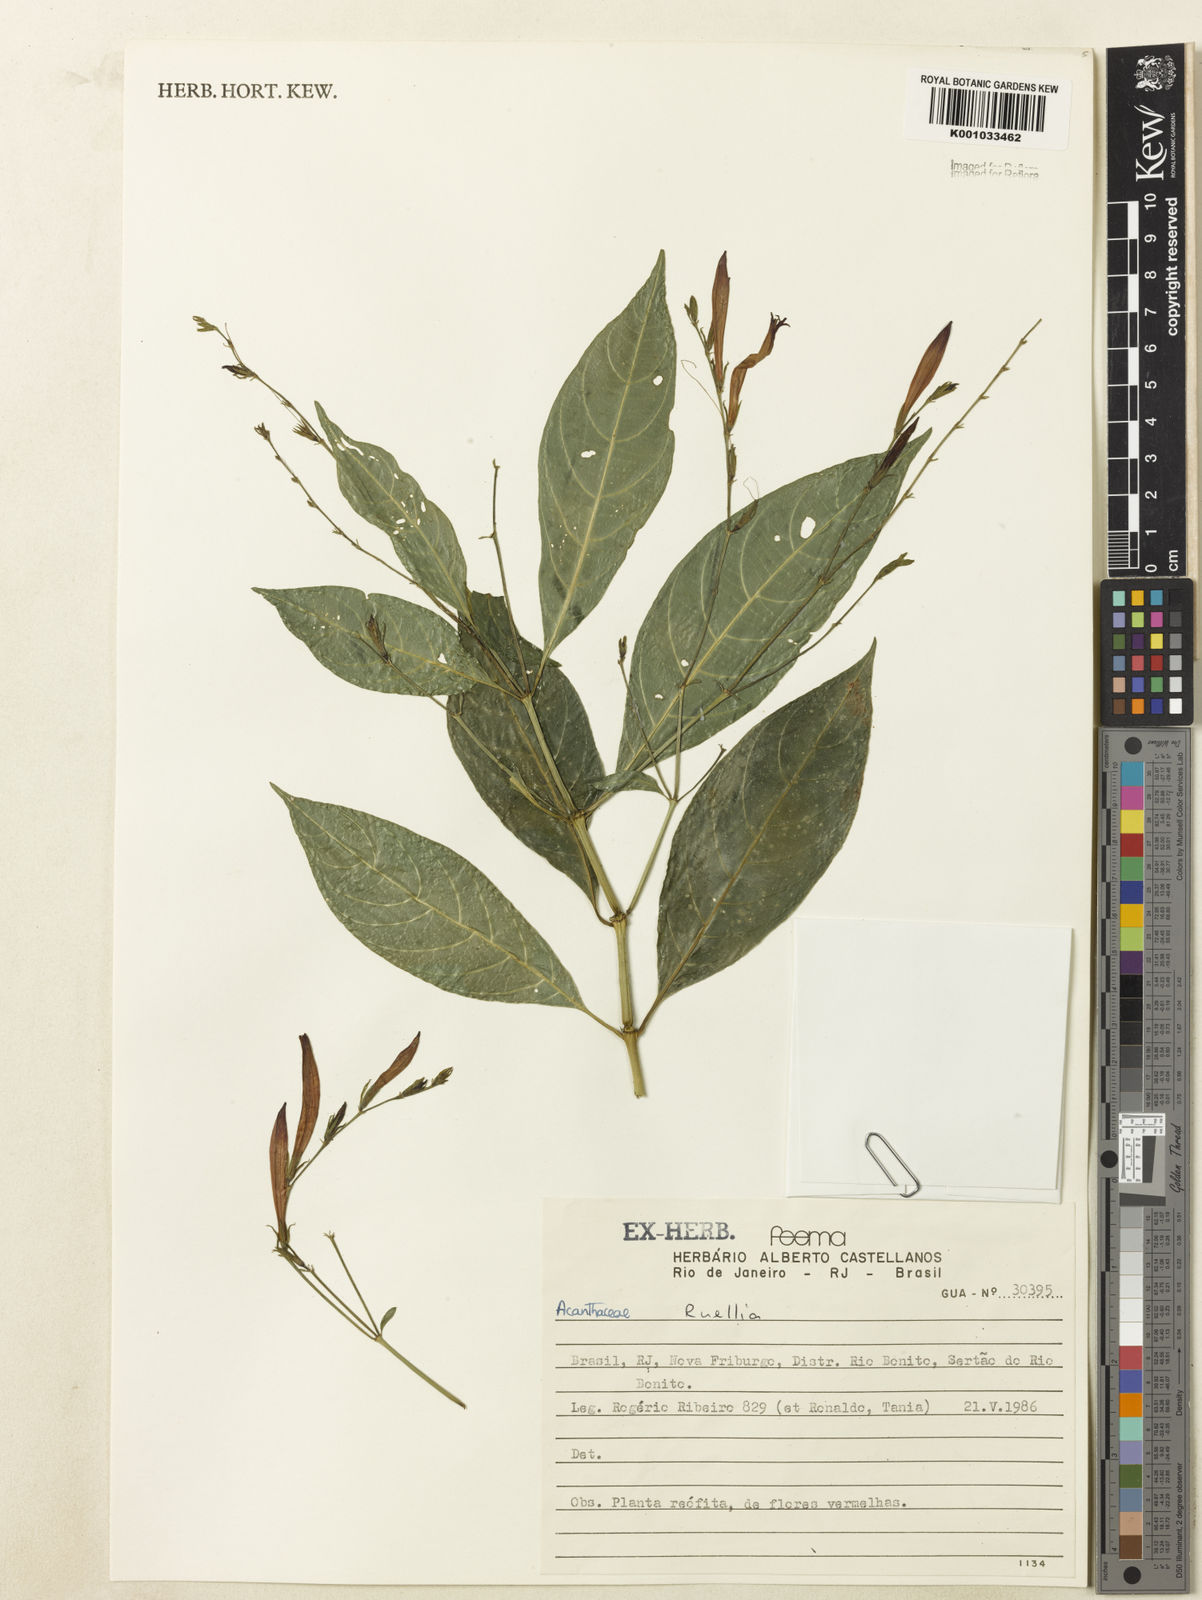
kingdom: Plantae
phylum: Tracheophyta
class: Magnoliopsida
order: Lamiales
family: Acanthaceae
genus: Justicia
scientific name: Justicia polita
